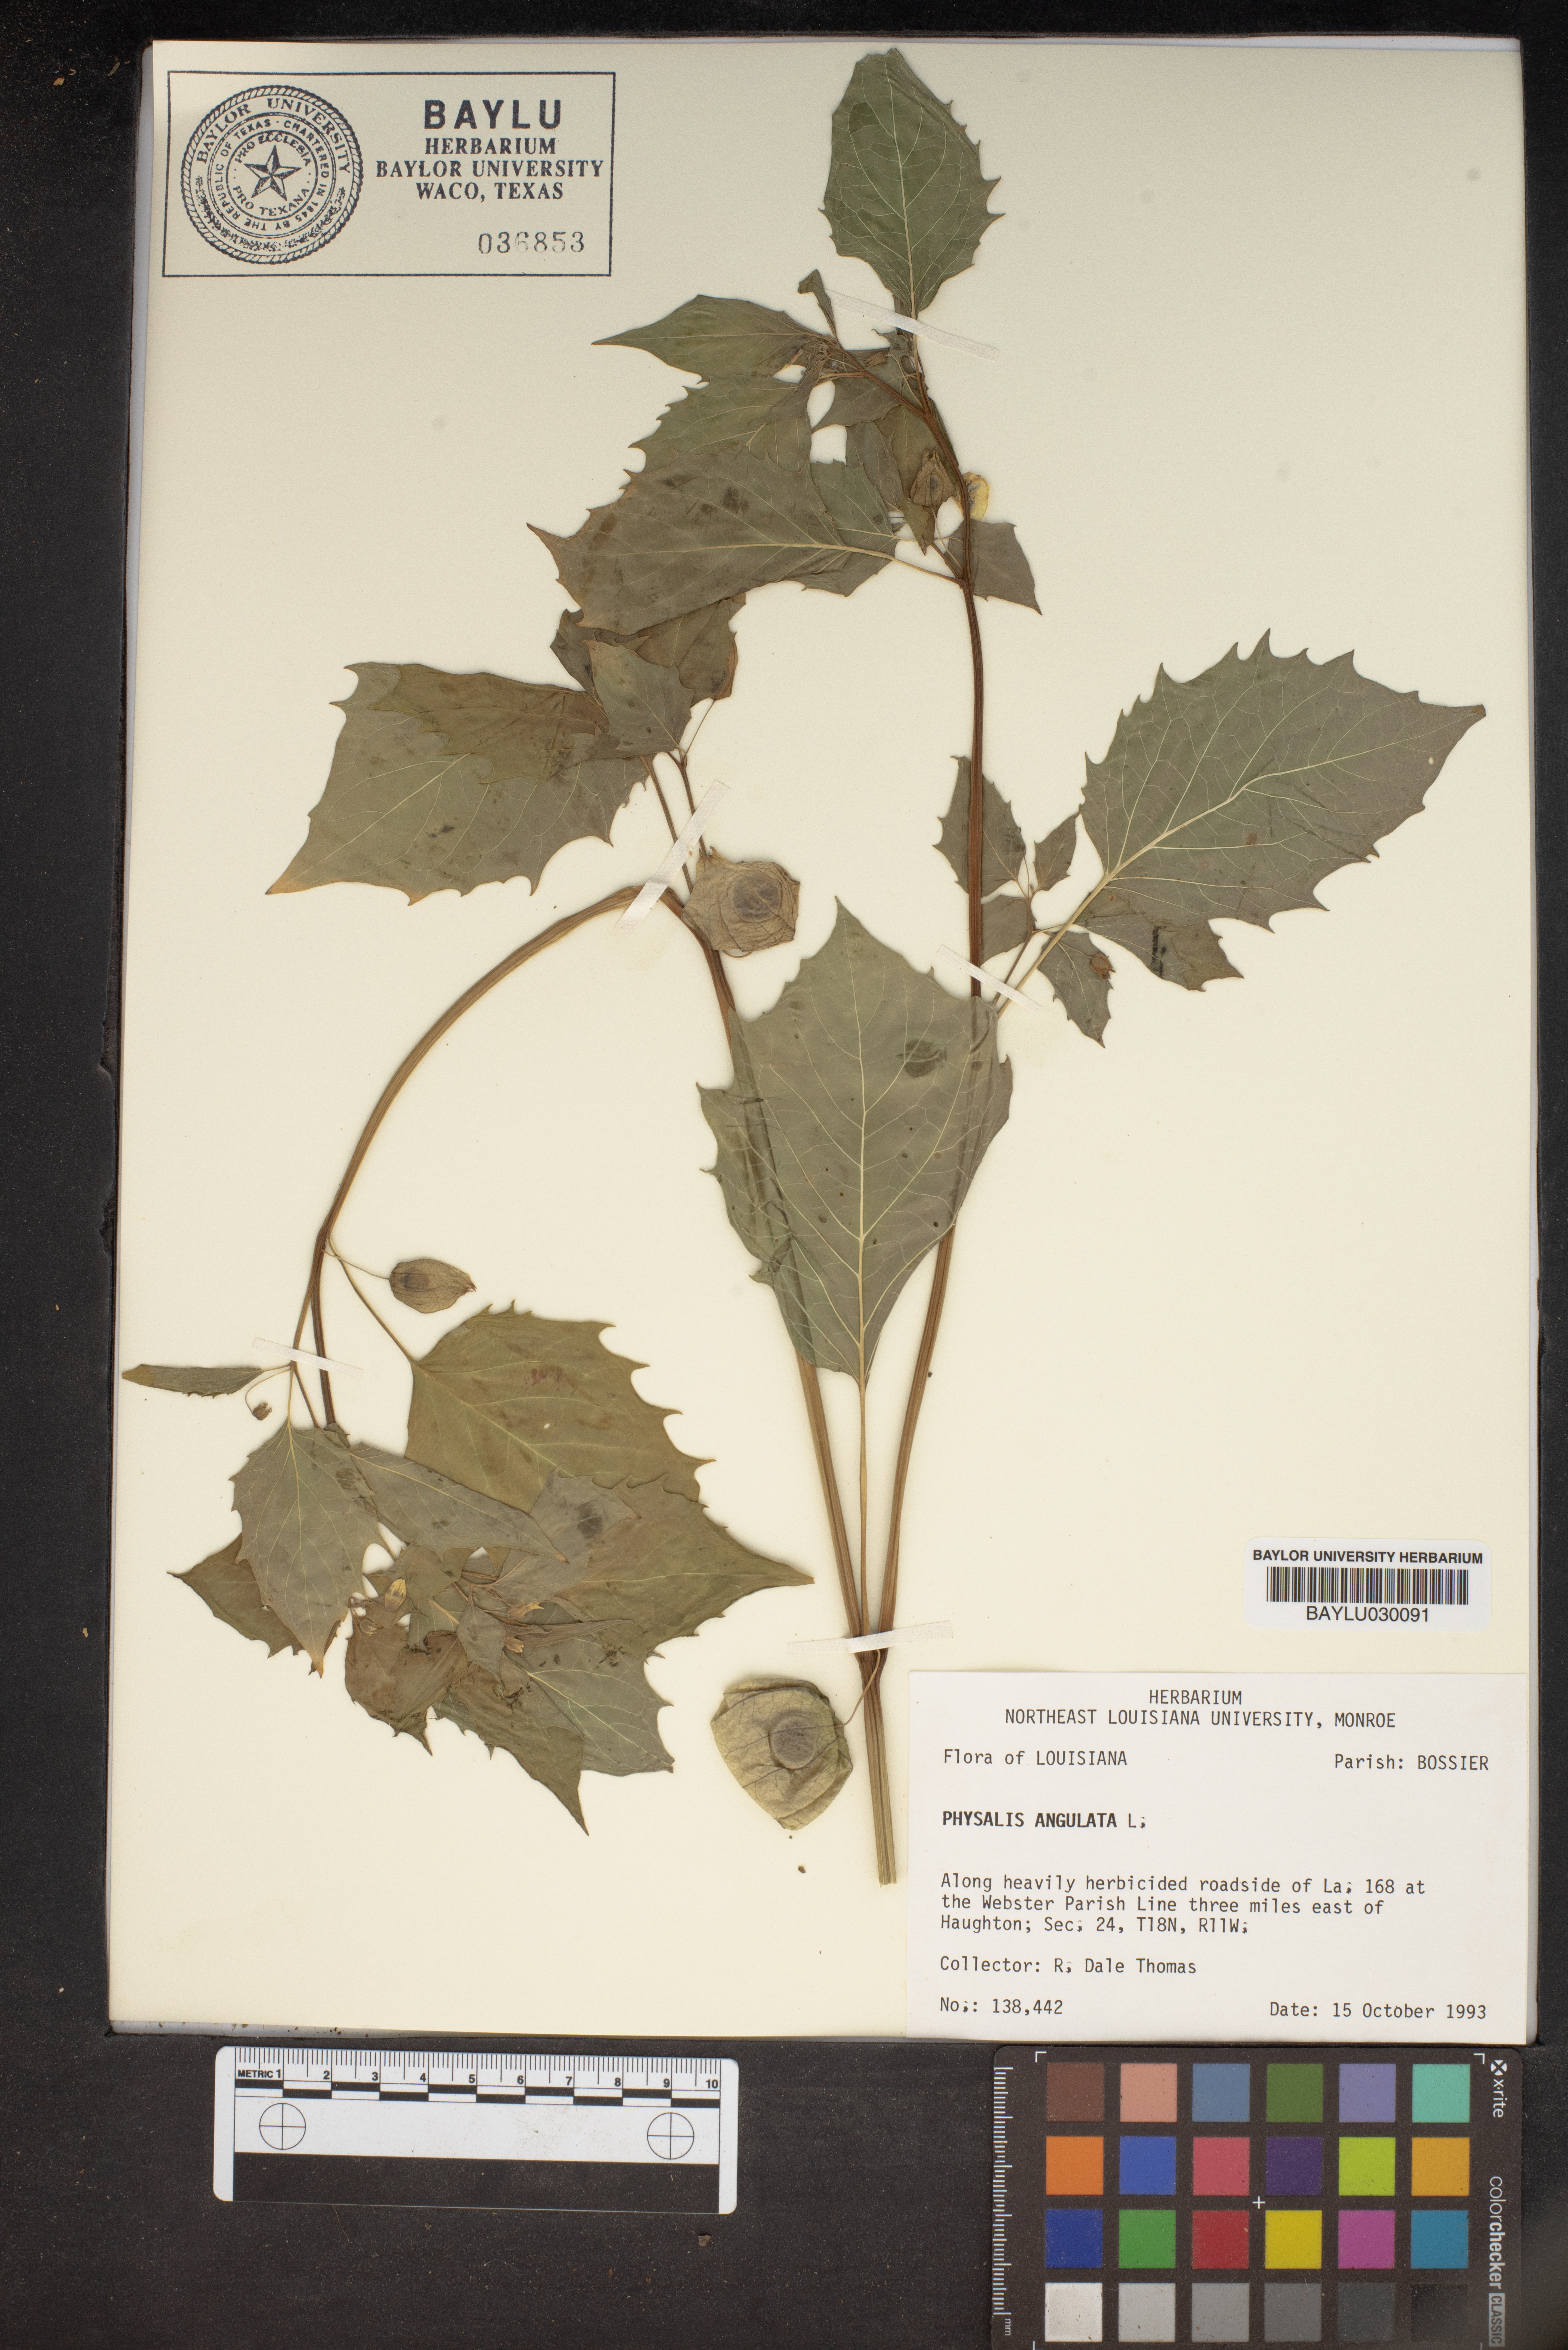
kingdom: Plantae
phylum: Tracheophyta
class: Magnoliopsida
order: Solanales
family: Solanaceae
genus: Physalis
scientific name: Physalis angulata
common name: Angular winter-cherry
